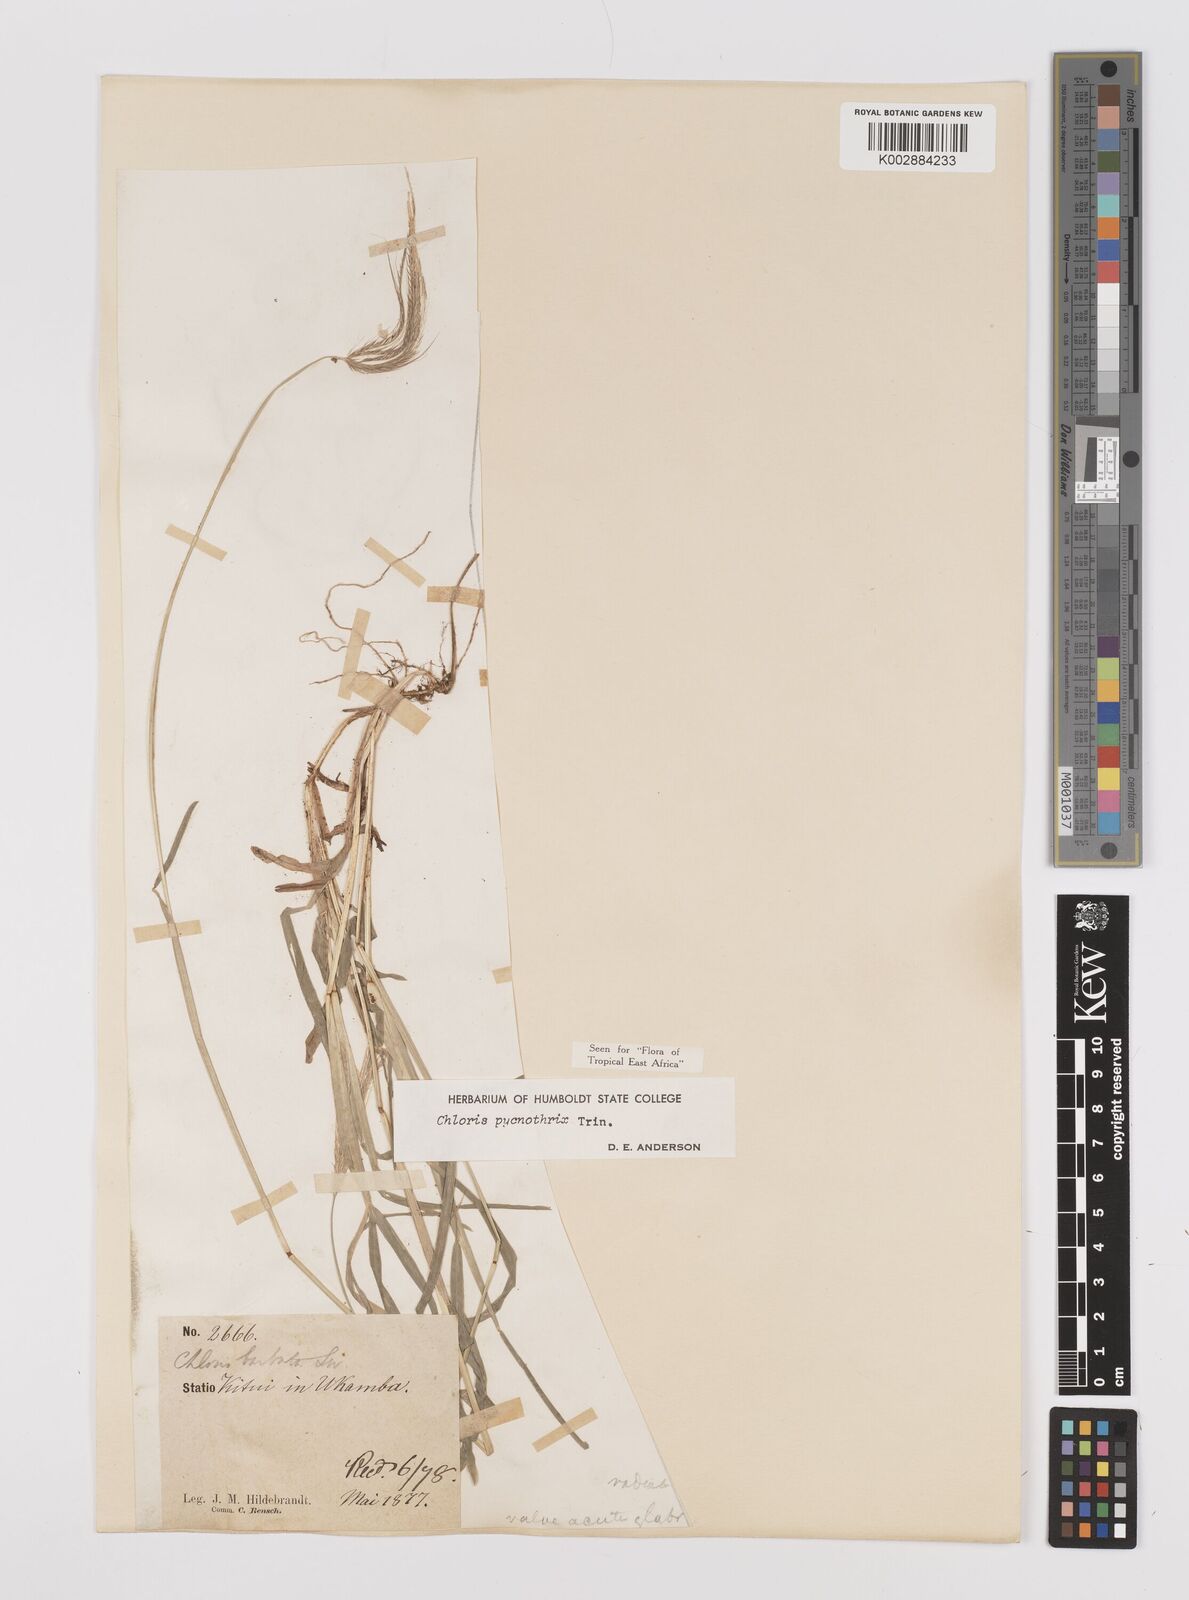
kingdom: Plantae
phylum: Tracheophyta
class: Liliopsida
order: Poales
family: Poaceae
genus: Chloris
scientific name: Chloris pycnothrix
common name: Spiderweb chloris
